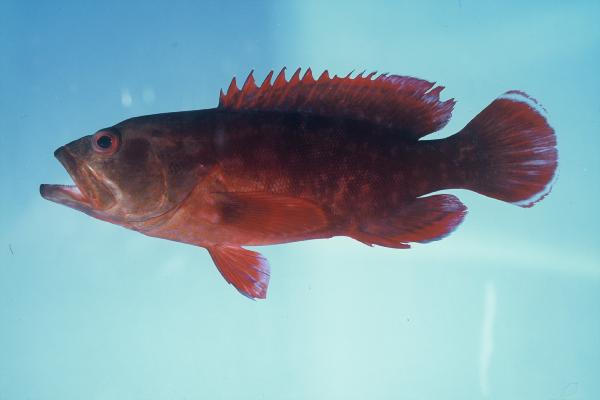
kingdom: Animalia
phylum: Chordata
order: Perciformes
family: Serranidae
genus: Cephalopholis
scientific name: Cephalopholis spiloparaea
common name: Strawberry grouper
